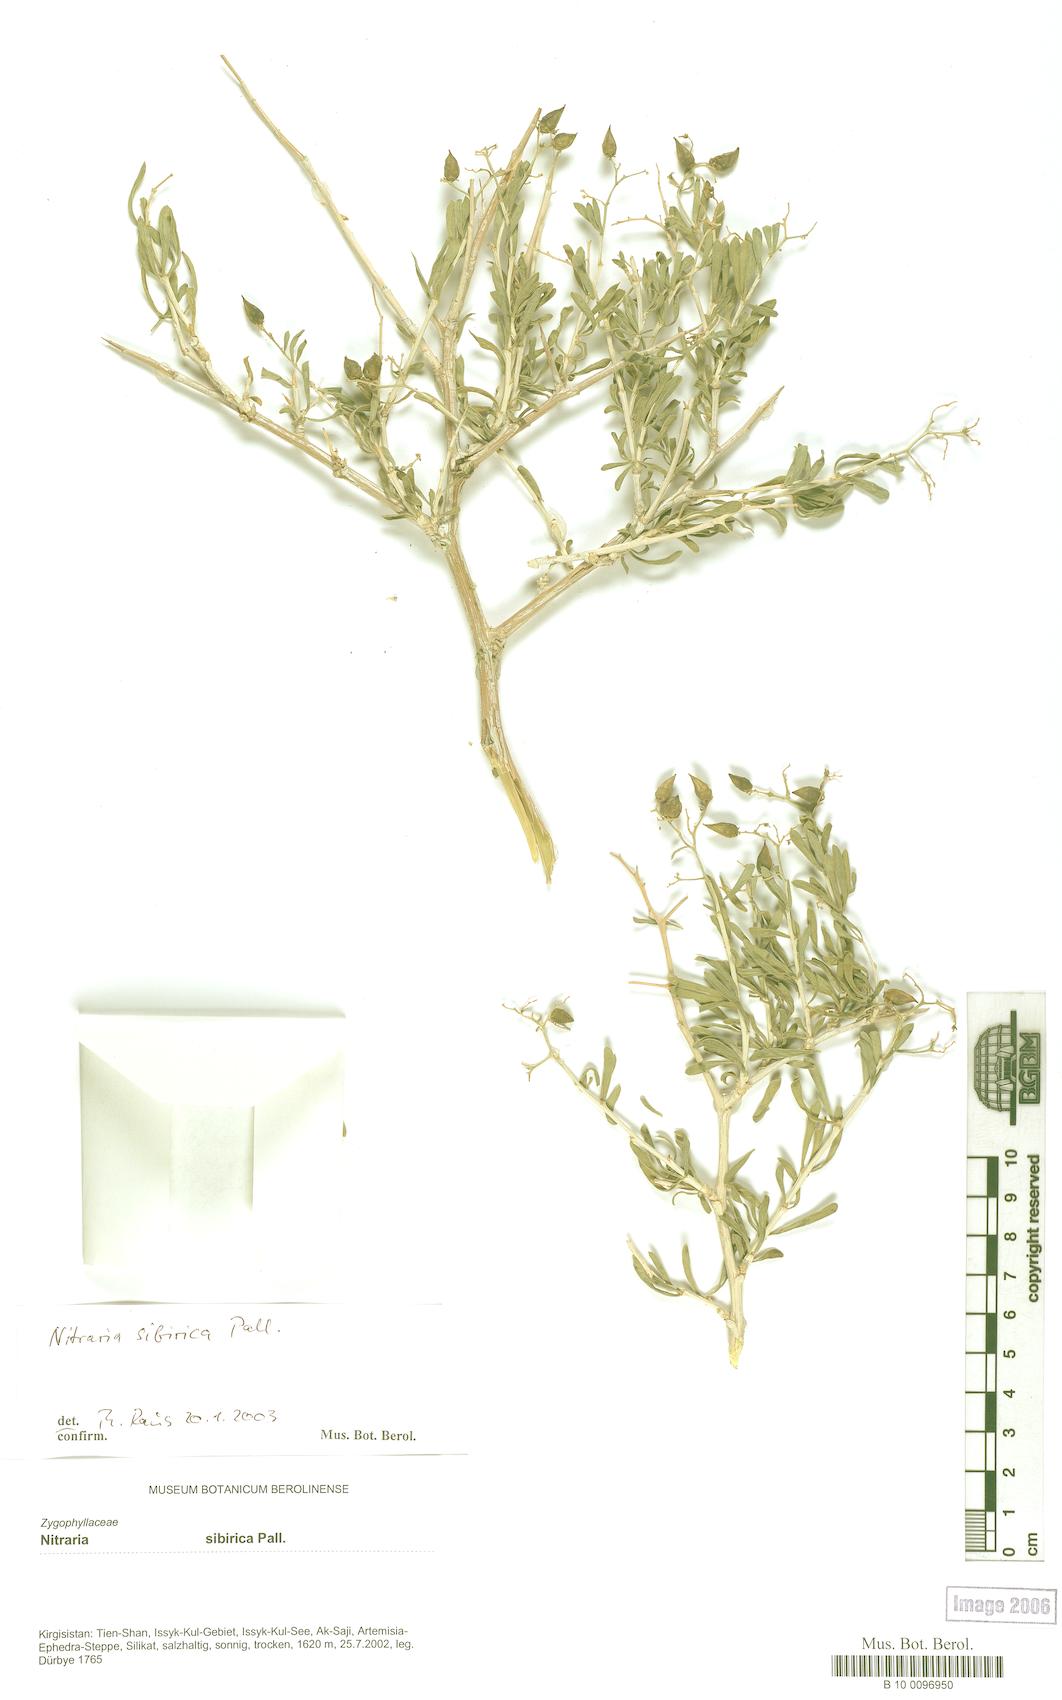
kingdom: Plantae
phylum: Tracheophyta
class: Magnoliopsida
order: Sapindales
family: Nitrariaceae
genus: Nitraria
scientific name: Nitraria sibirica
